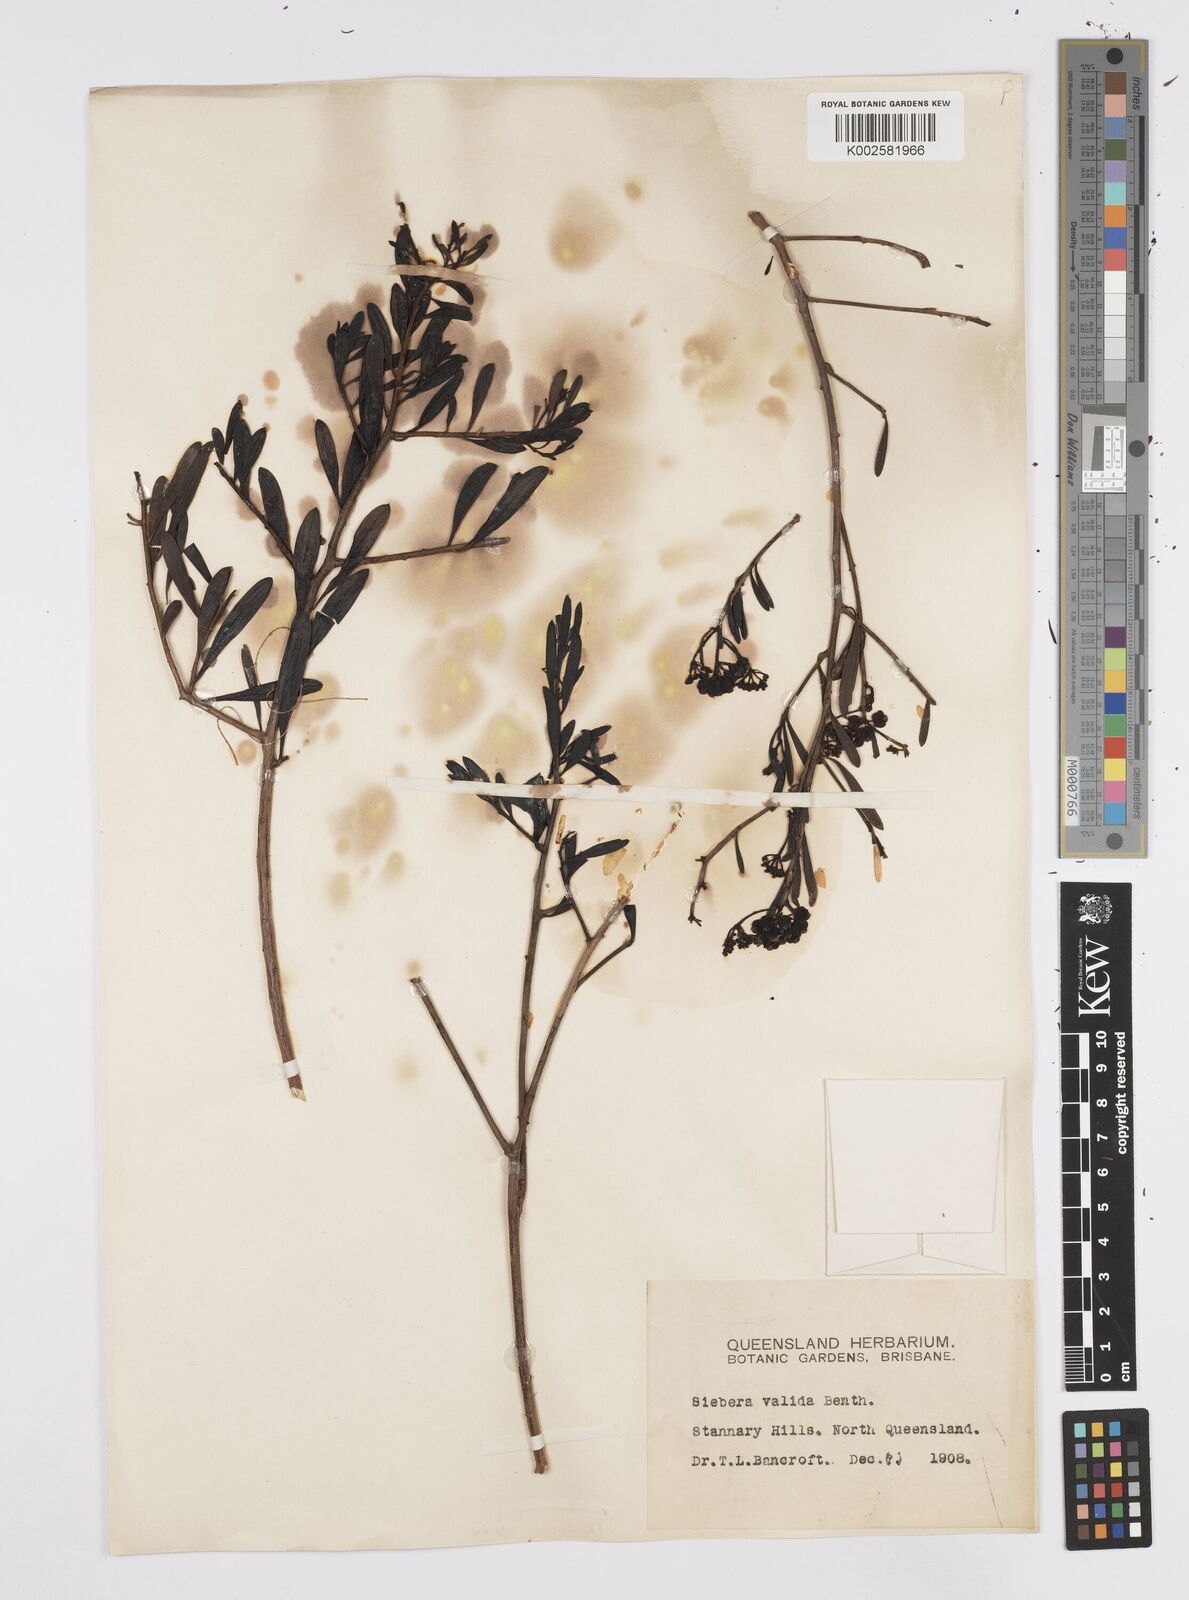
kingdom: Plantae
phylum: Tracheophyta
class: Magnoliopsida
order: Apiales
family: Apiaceae
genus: Platysace
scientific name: Platysace valida
